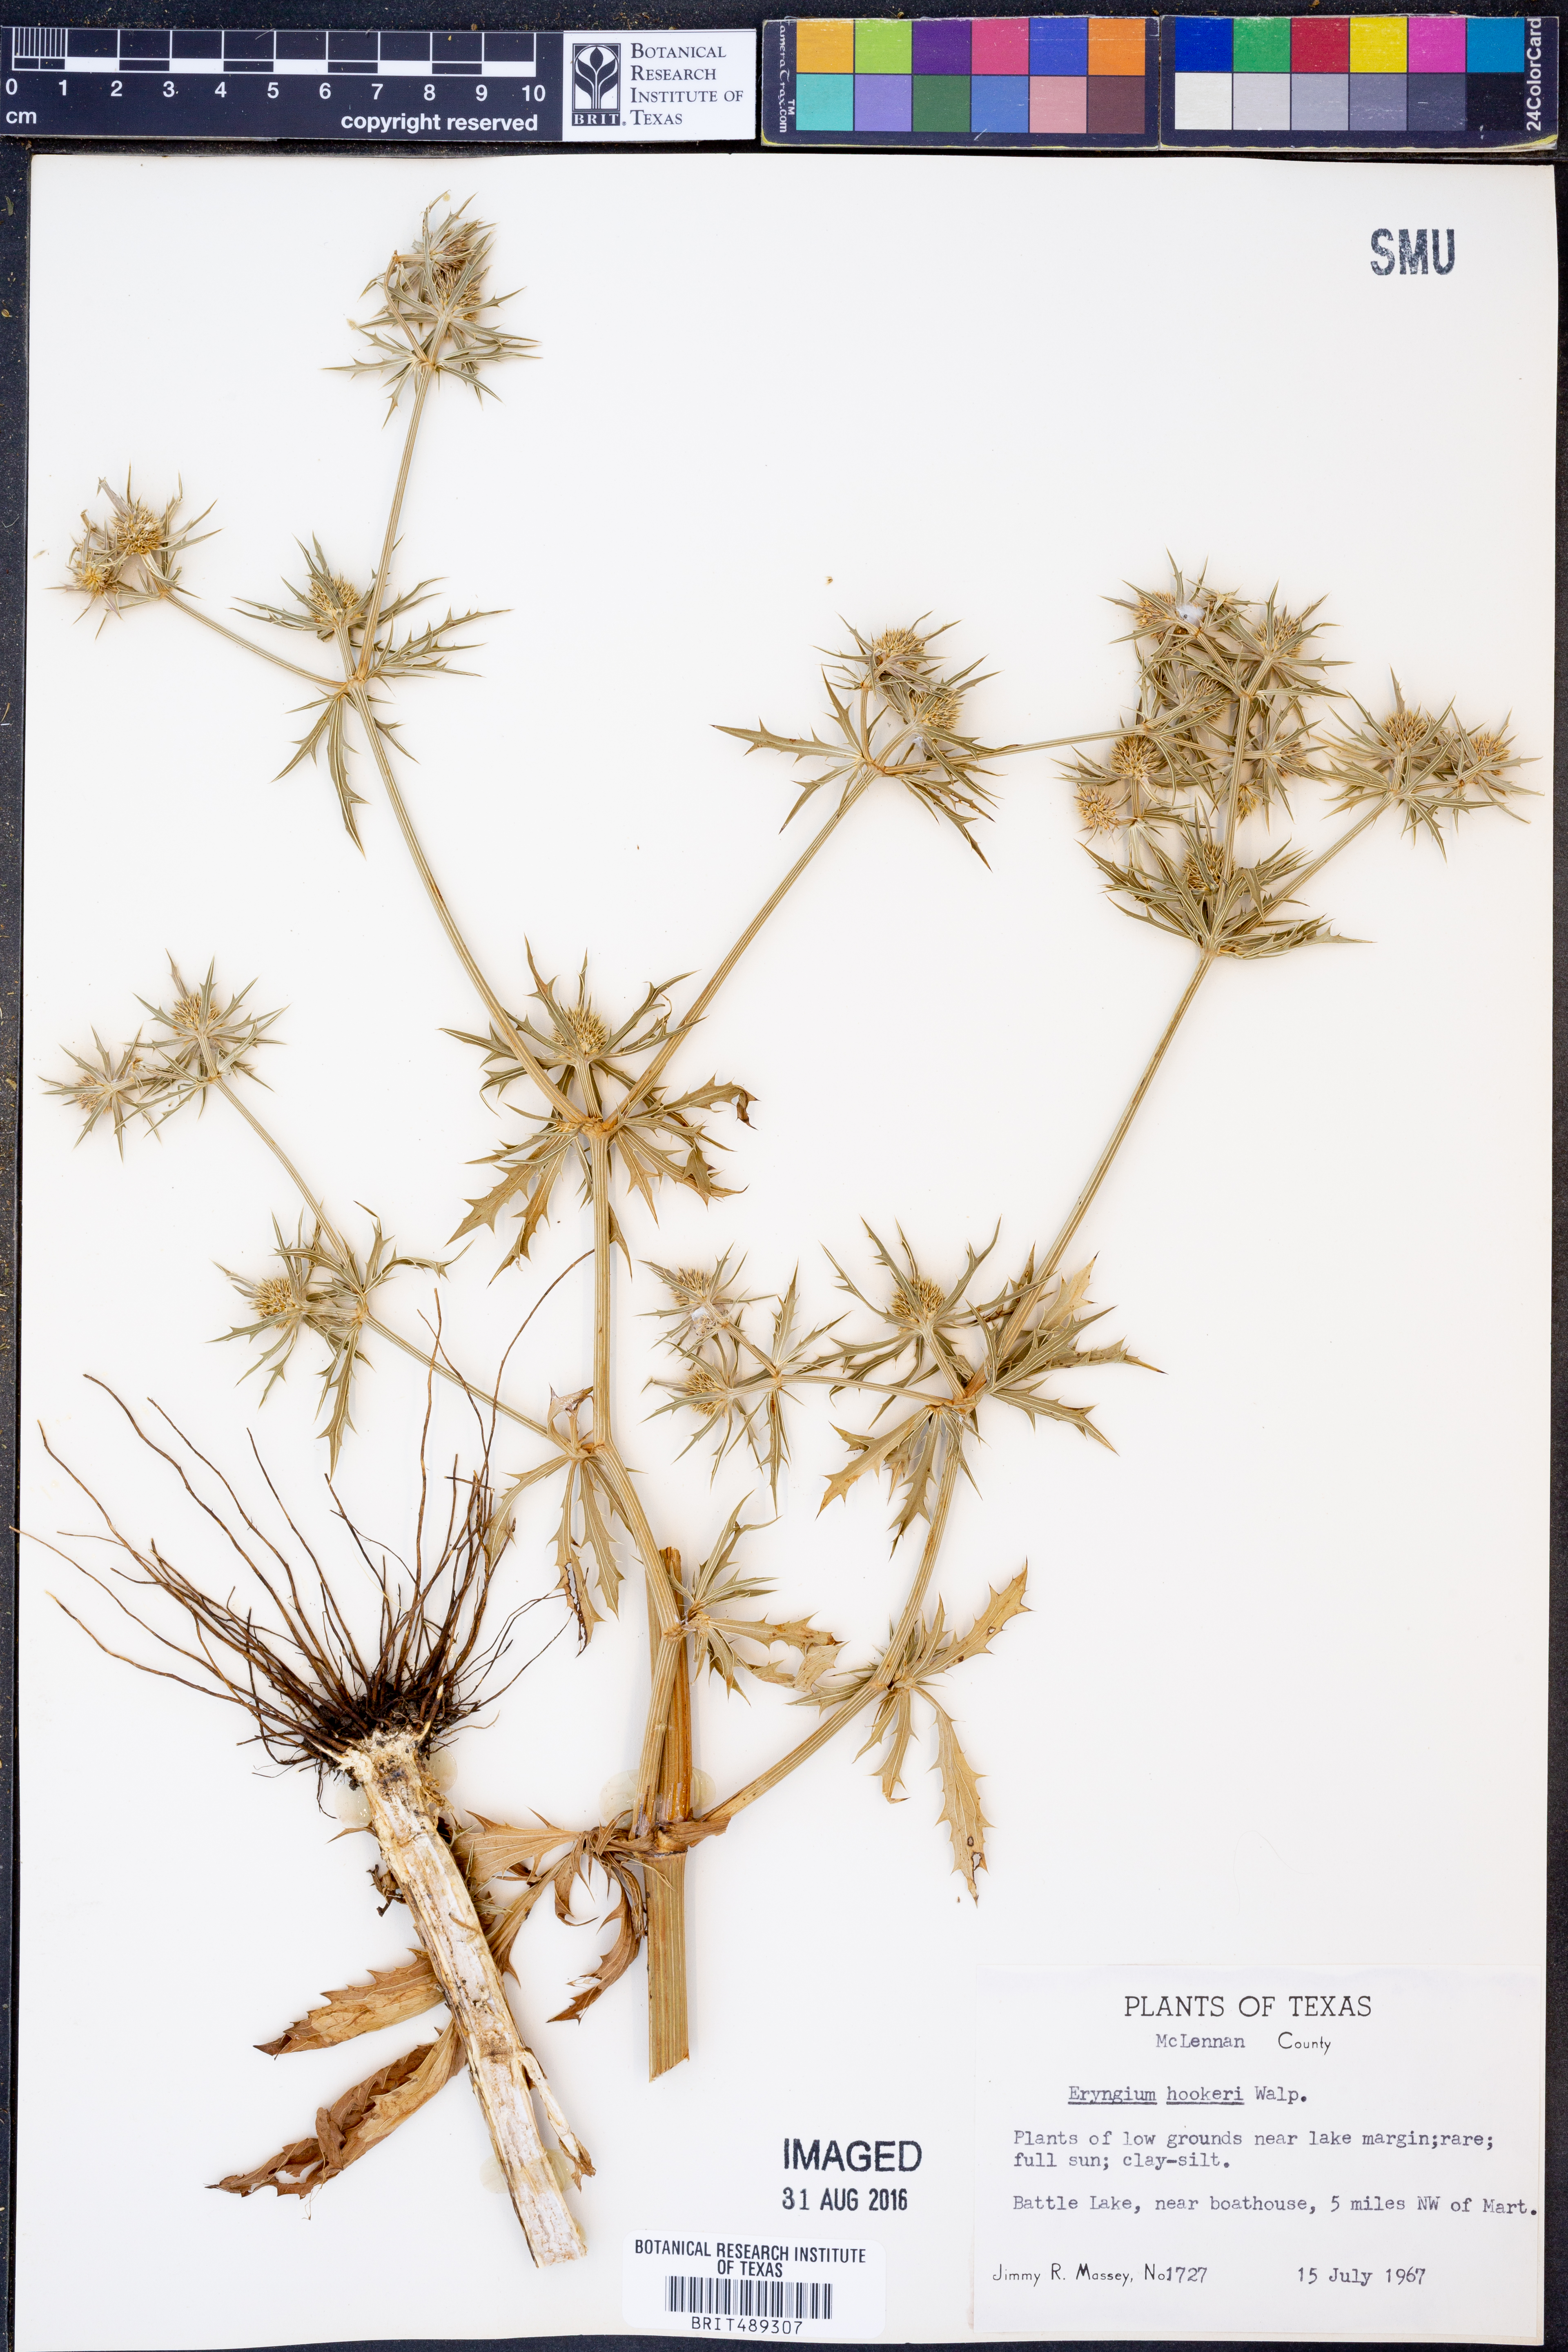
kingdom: Plantae
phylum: Tracheophyta
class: Magnoliopsida
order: Apiales
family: Apiaceae
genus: Eryngium
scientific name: Eryngium hookeri
